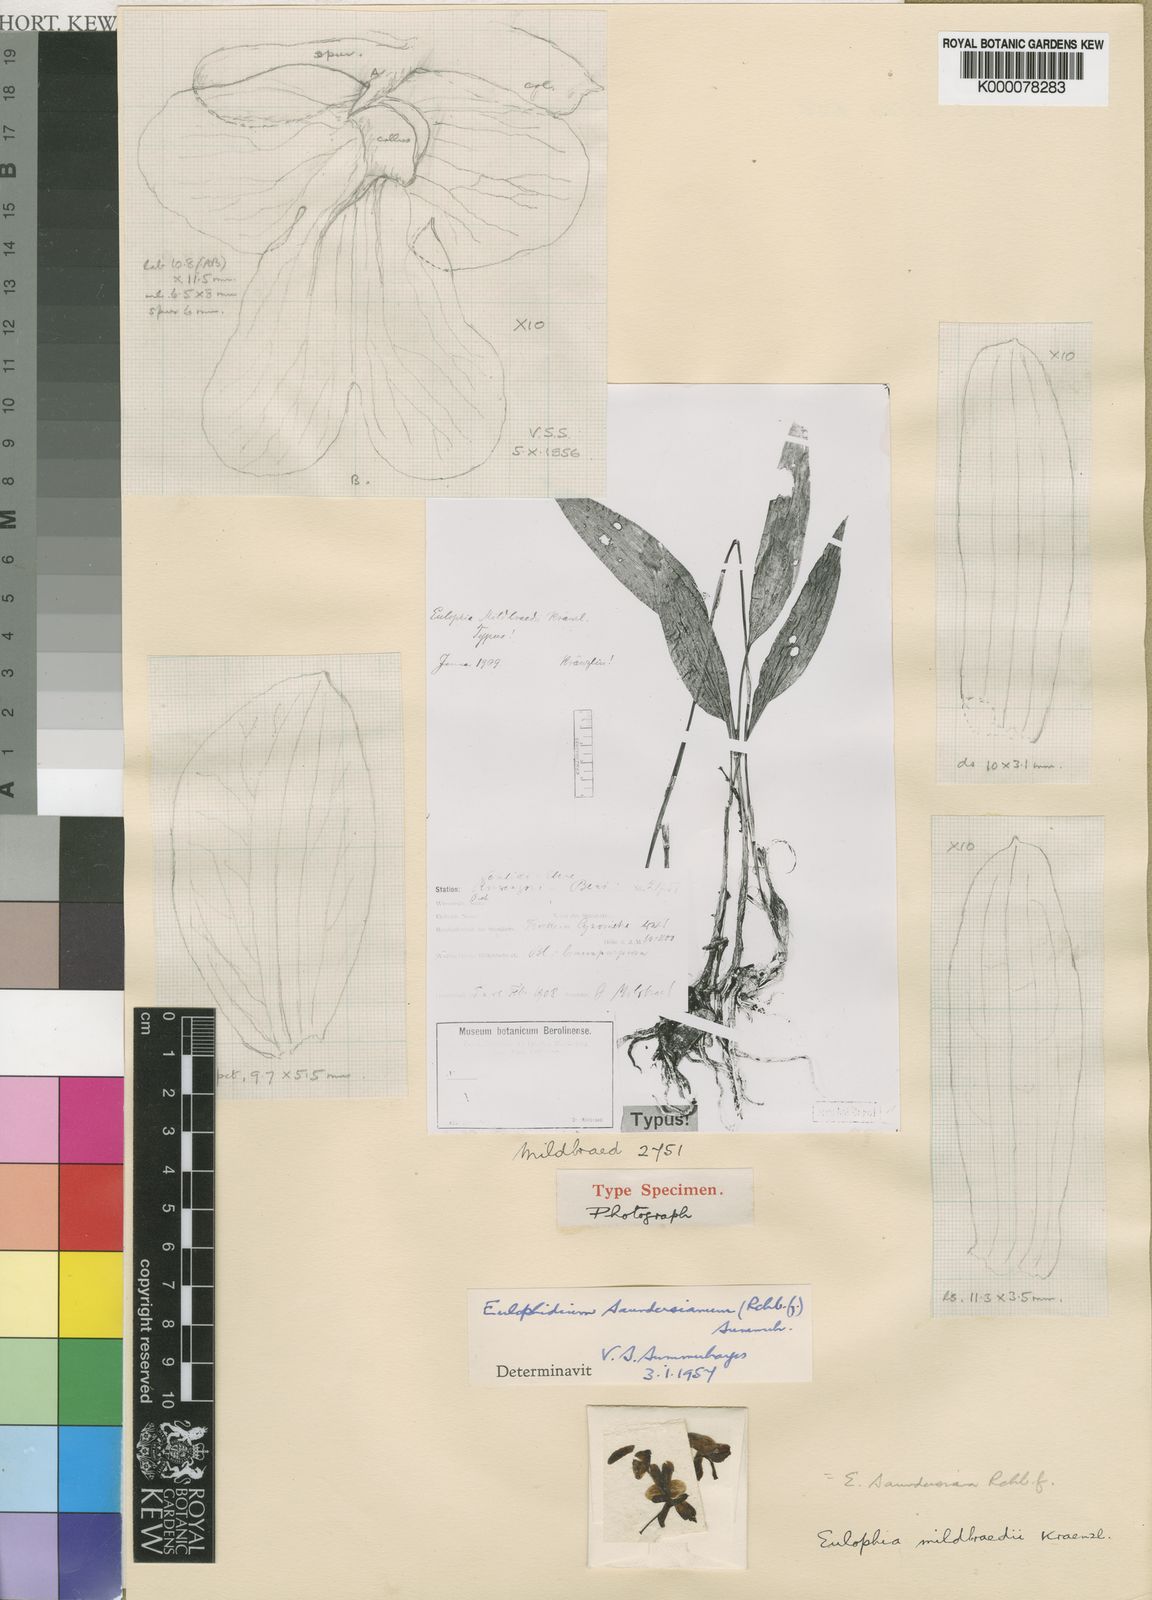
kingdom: Plantae
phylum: Tracheophyta
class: Liliopsida
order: Asparagales
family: Orchidaceae
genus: Eulophia
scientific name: Eulophia saundersiana
